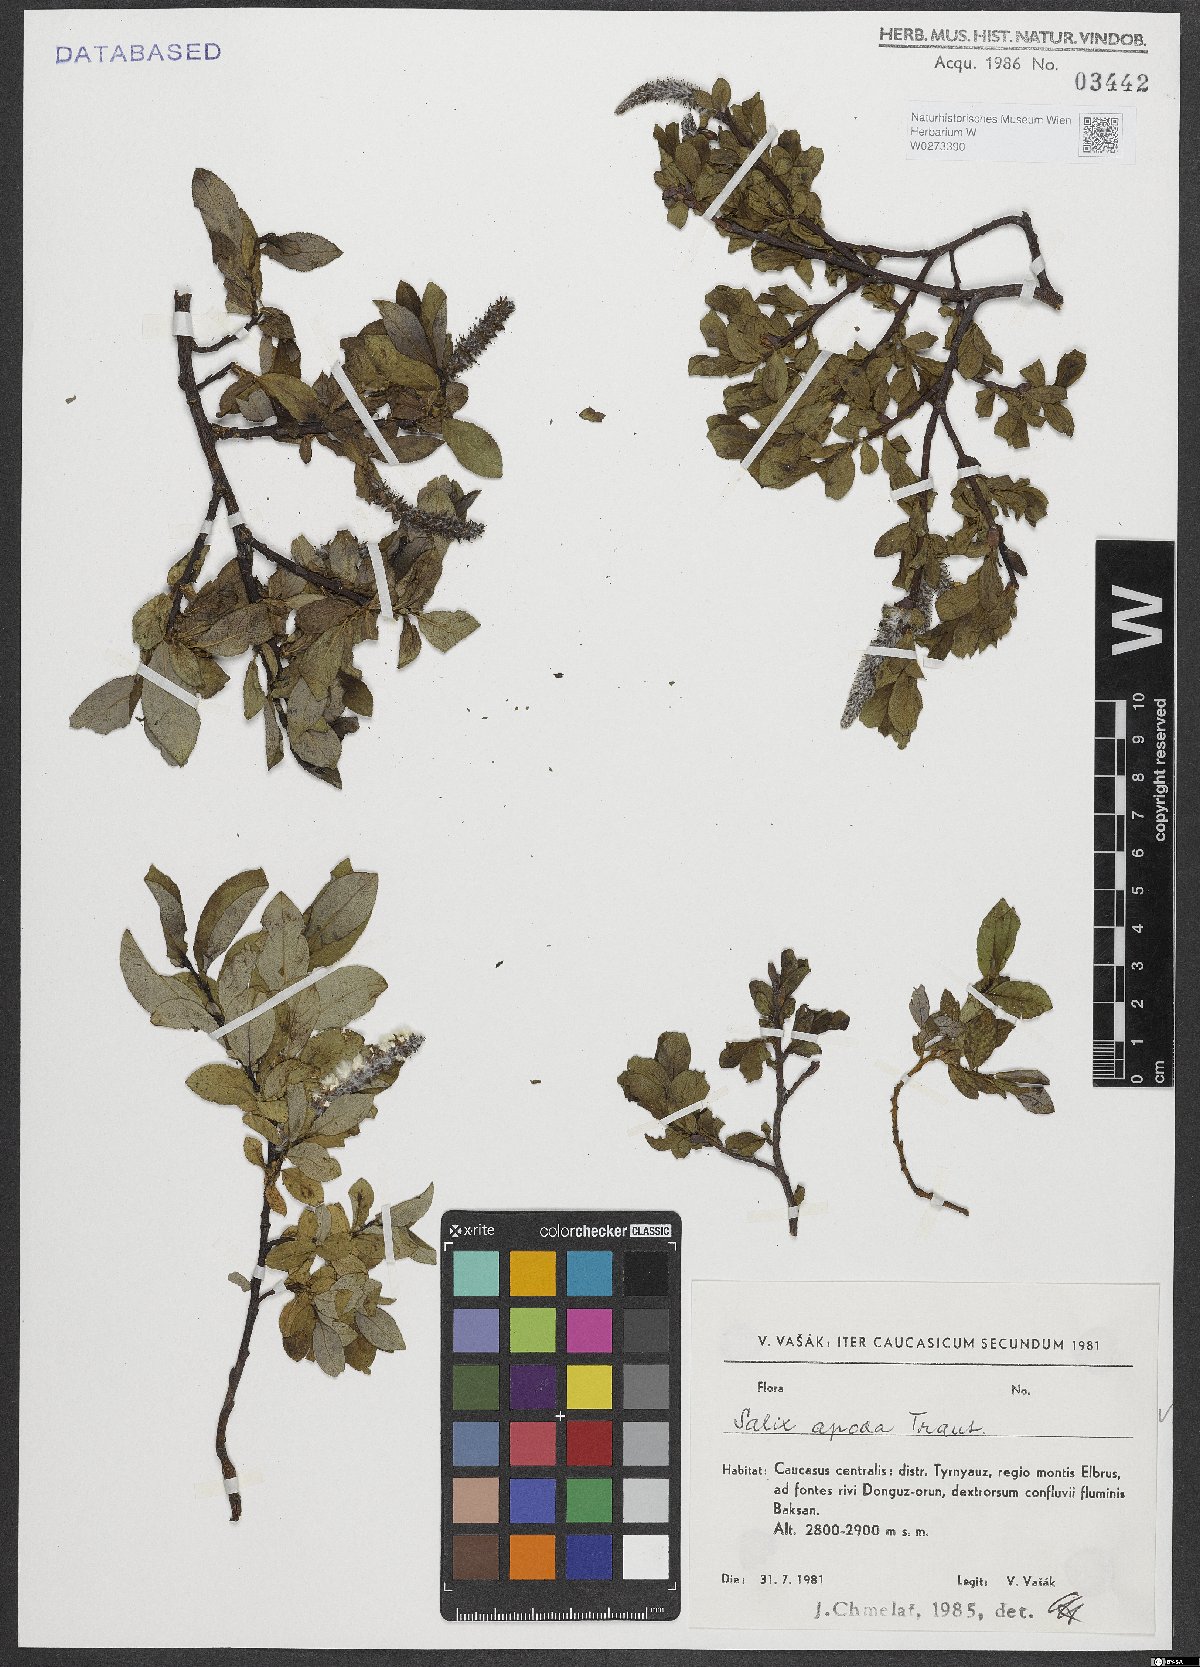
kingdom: Plantae
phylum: Tracheophyta
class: Magnoliopsida
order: Malpighiales
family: Salicaceae
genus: Salix
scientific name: Salix apoda
